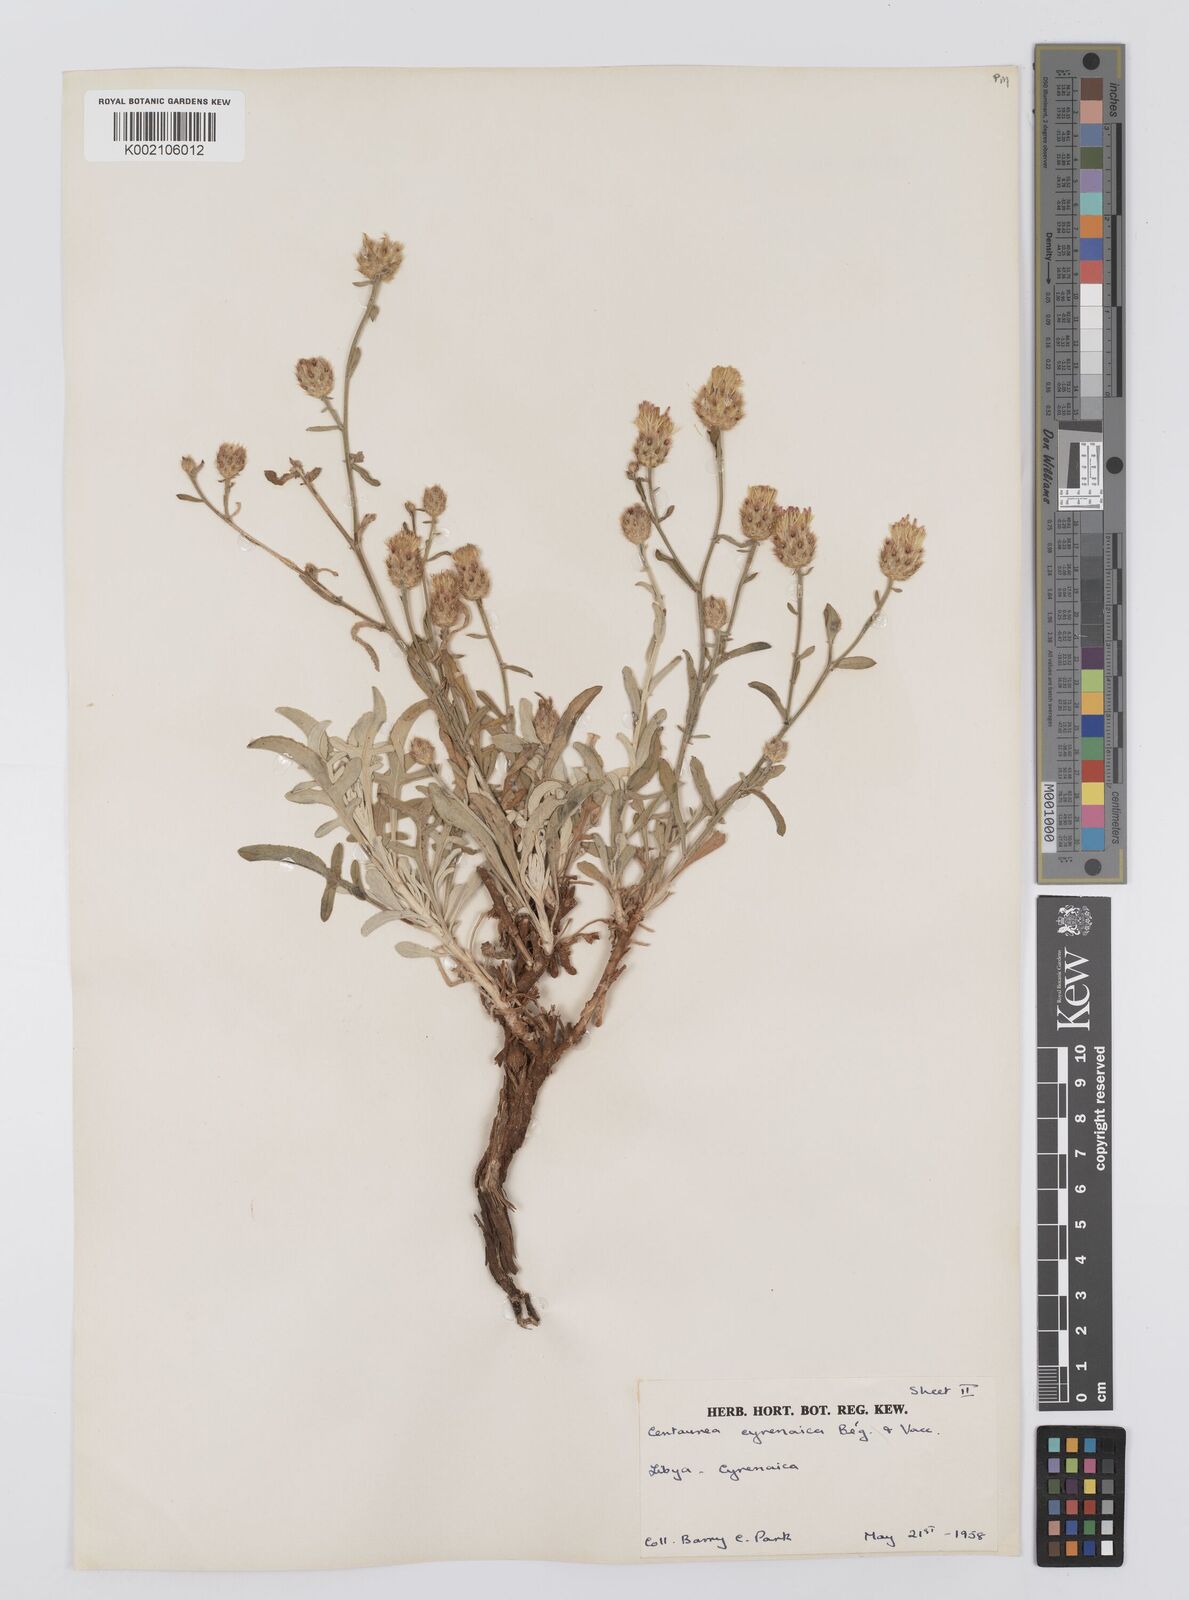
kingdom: Plantae
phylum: Tracheophyta
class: Magnoliopsida
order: Asterales
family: Asteraceae
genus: Centaurea
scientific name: Centaurea cyrenaica
